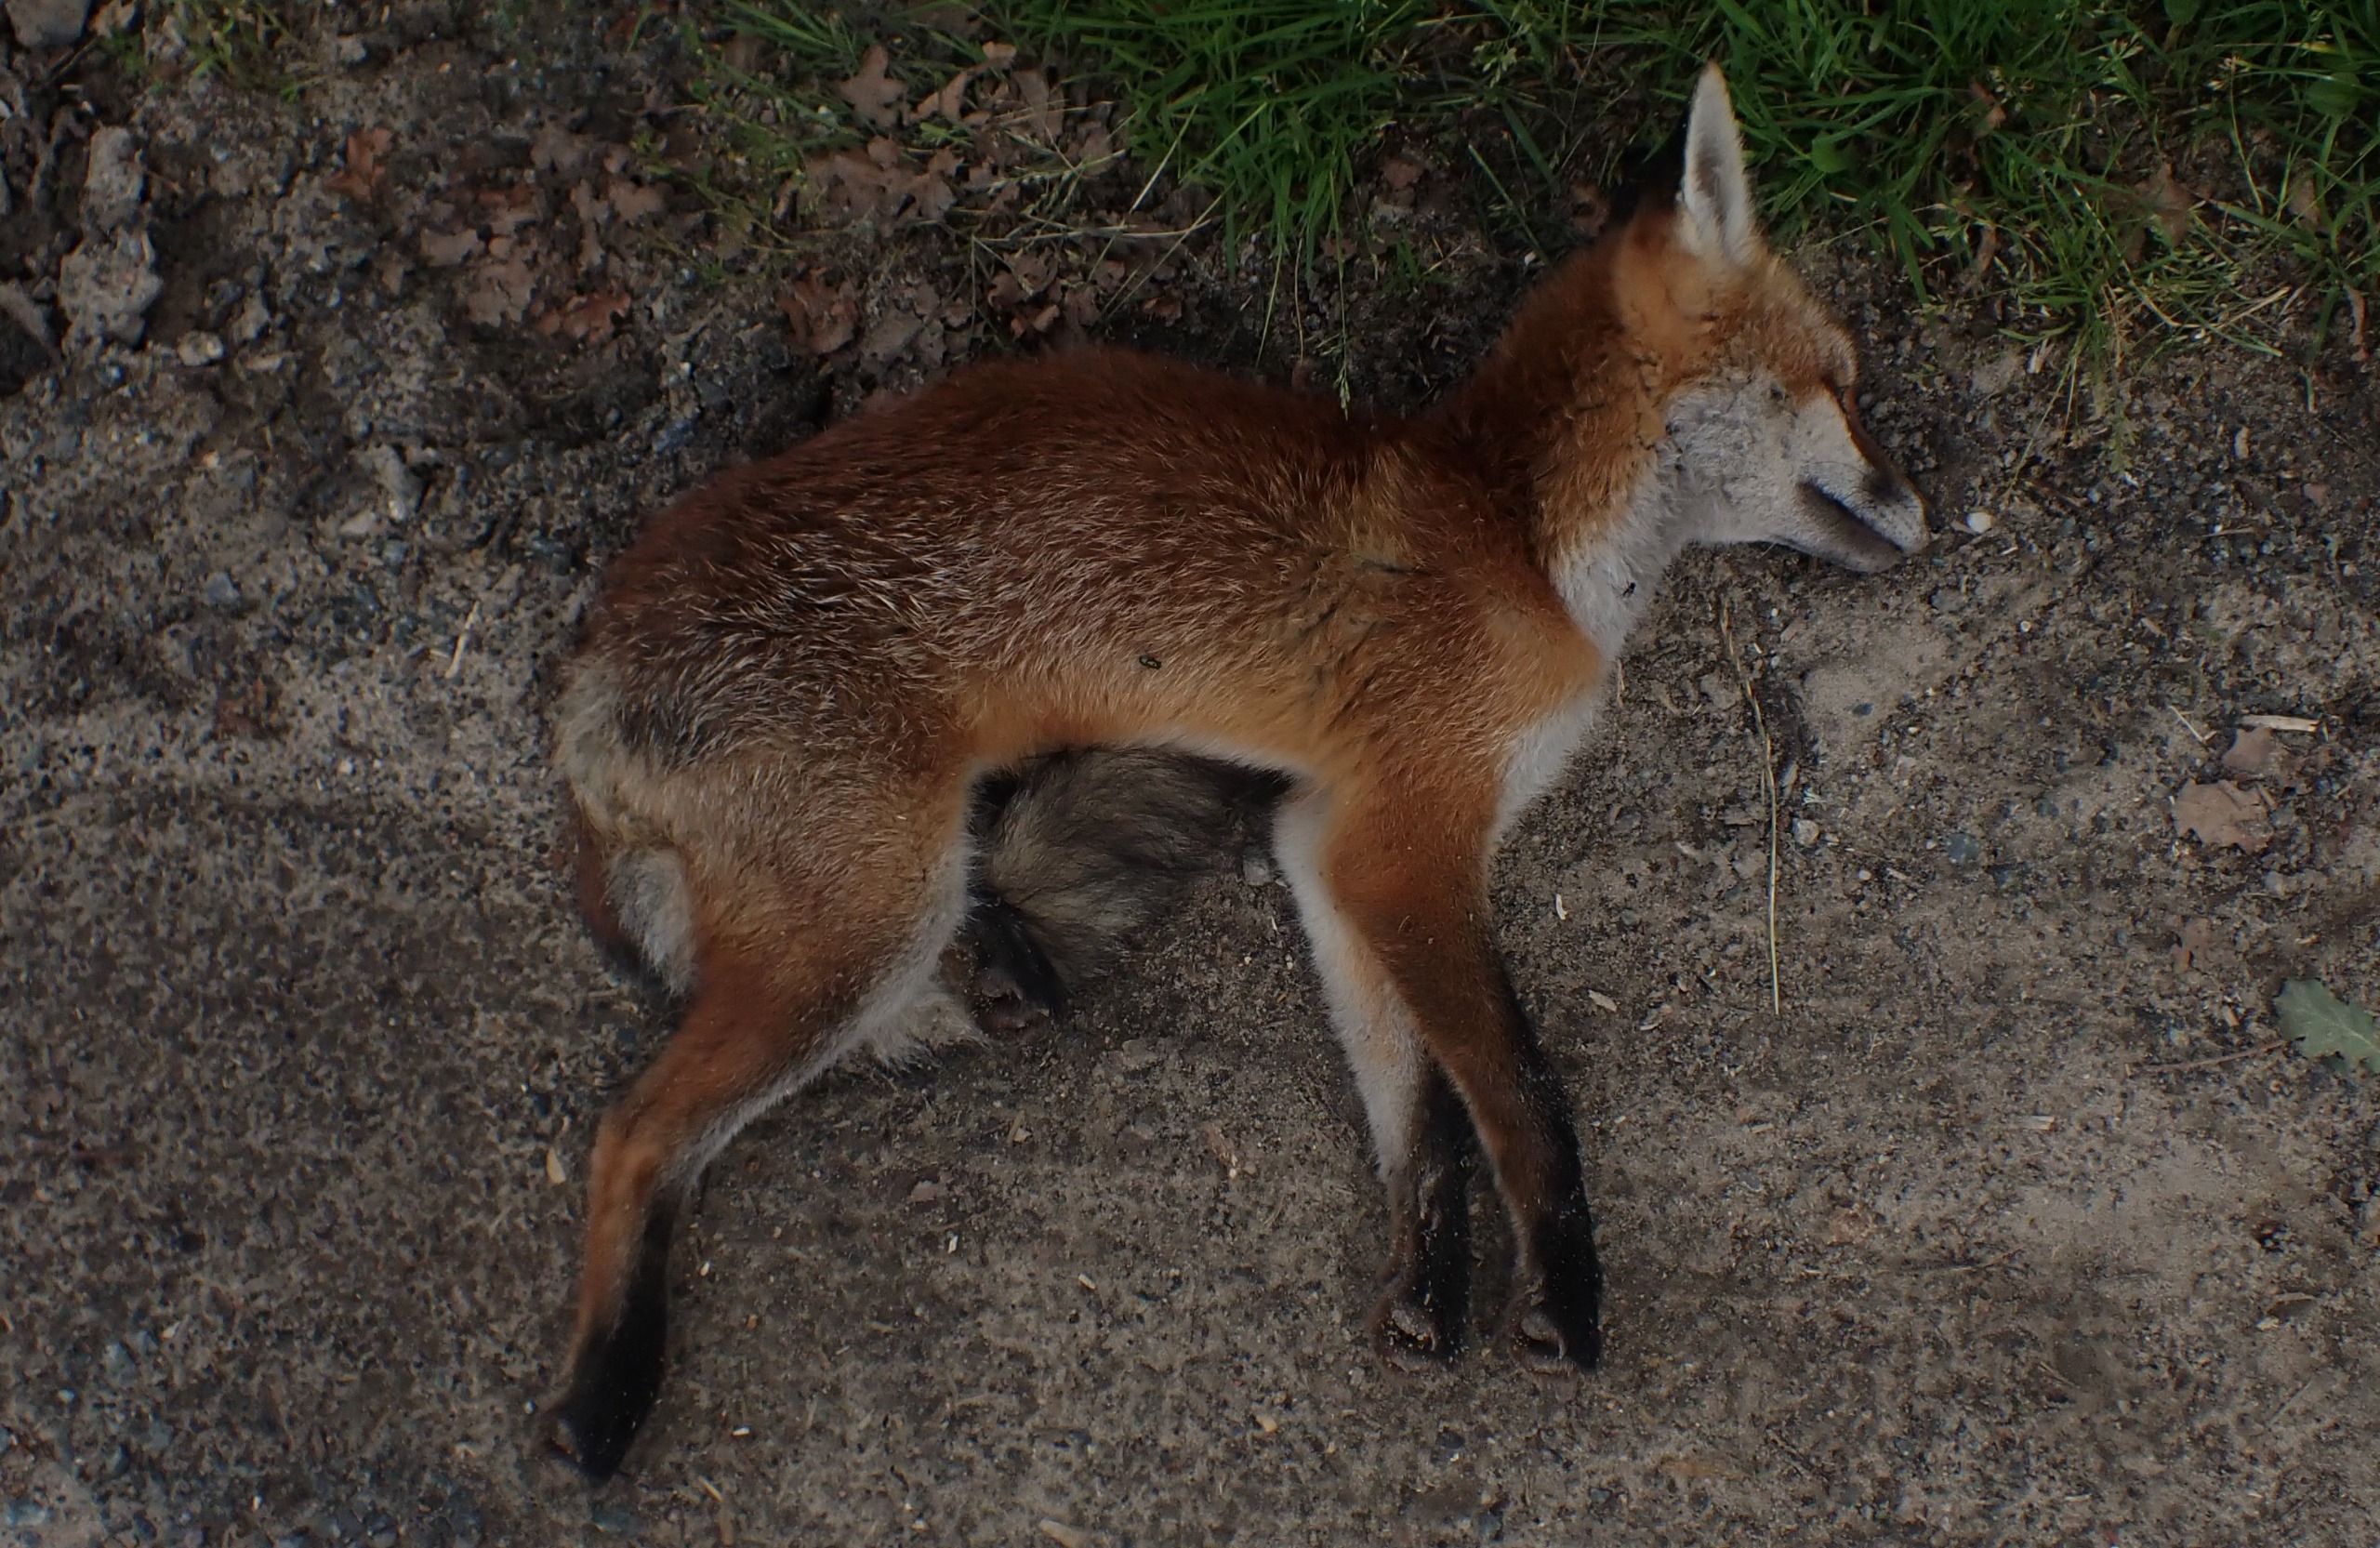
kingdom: Animalia
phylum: Chordata
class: Mammalia
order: Carnivora
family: Canidae
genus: Vulpes
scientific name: Vulpes vulpes
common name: Ræv
